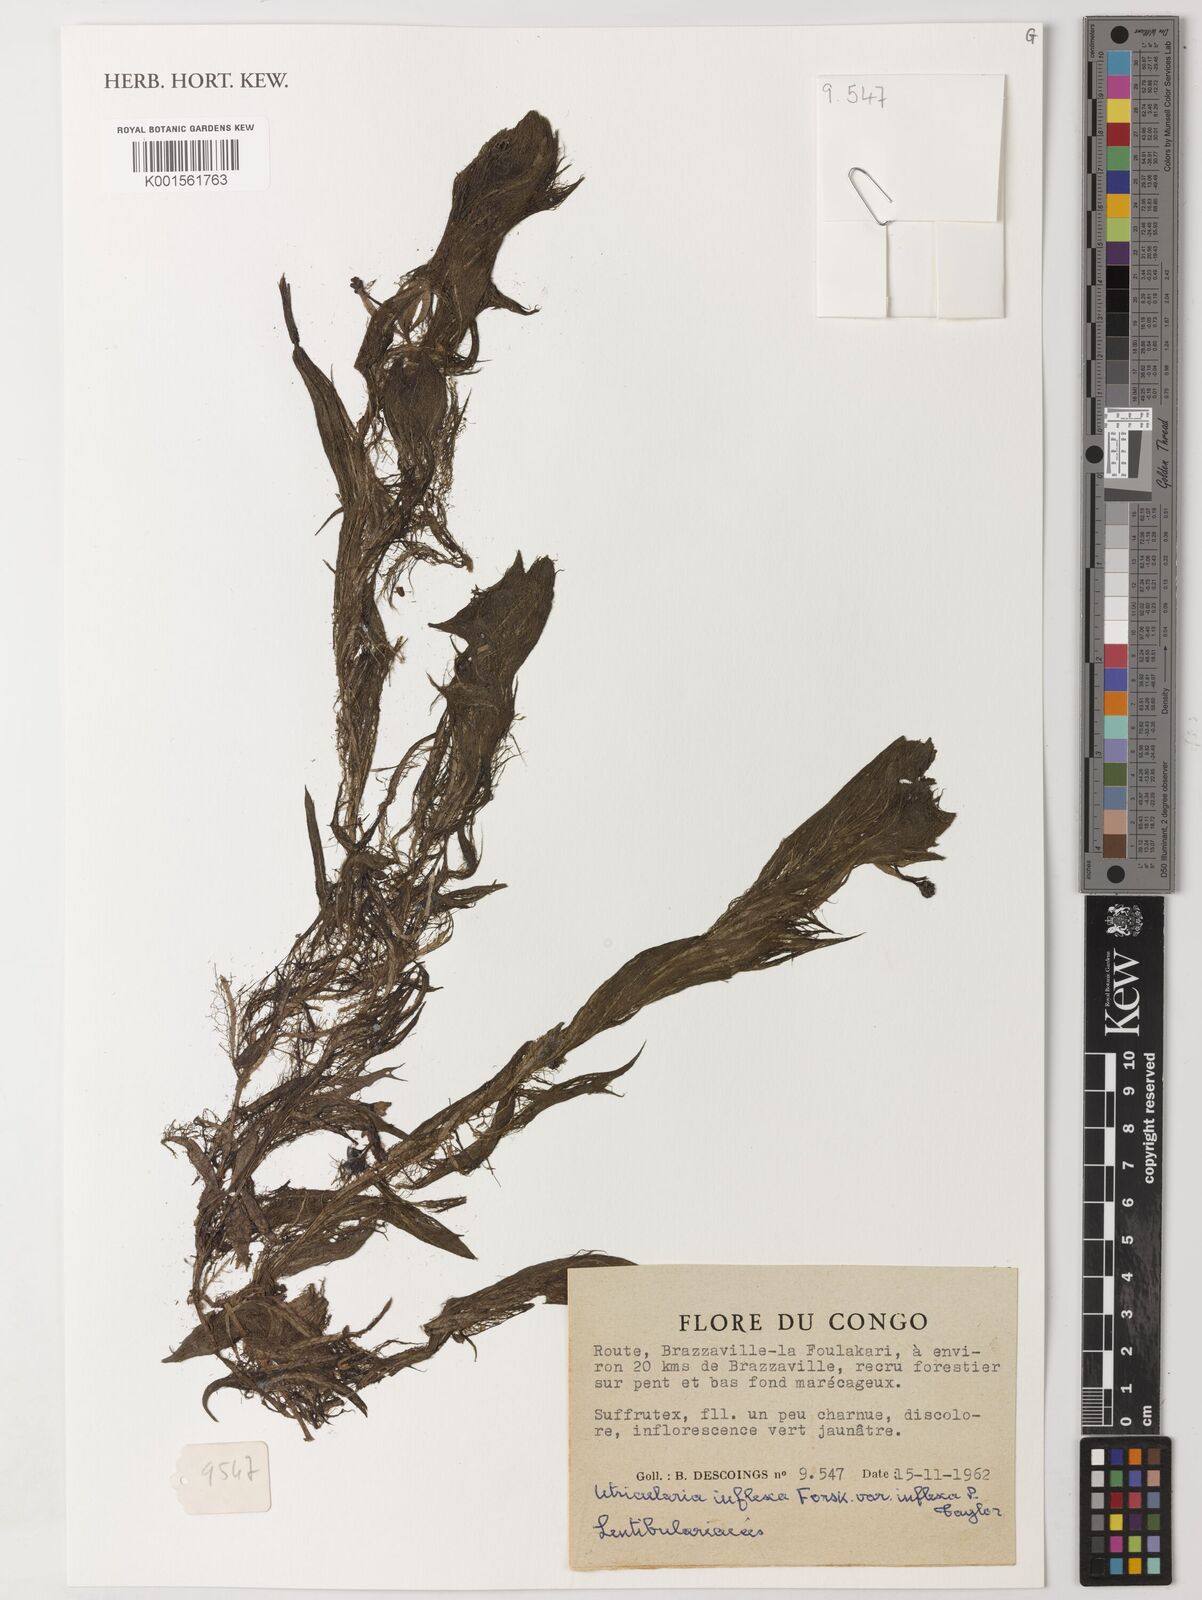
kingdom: Plantae
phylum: Tracheophyta
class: Magnoliopsida
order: Lamiales
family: Lentibulariaceae
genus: Utricularia
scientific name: Utricularia inflexa
